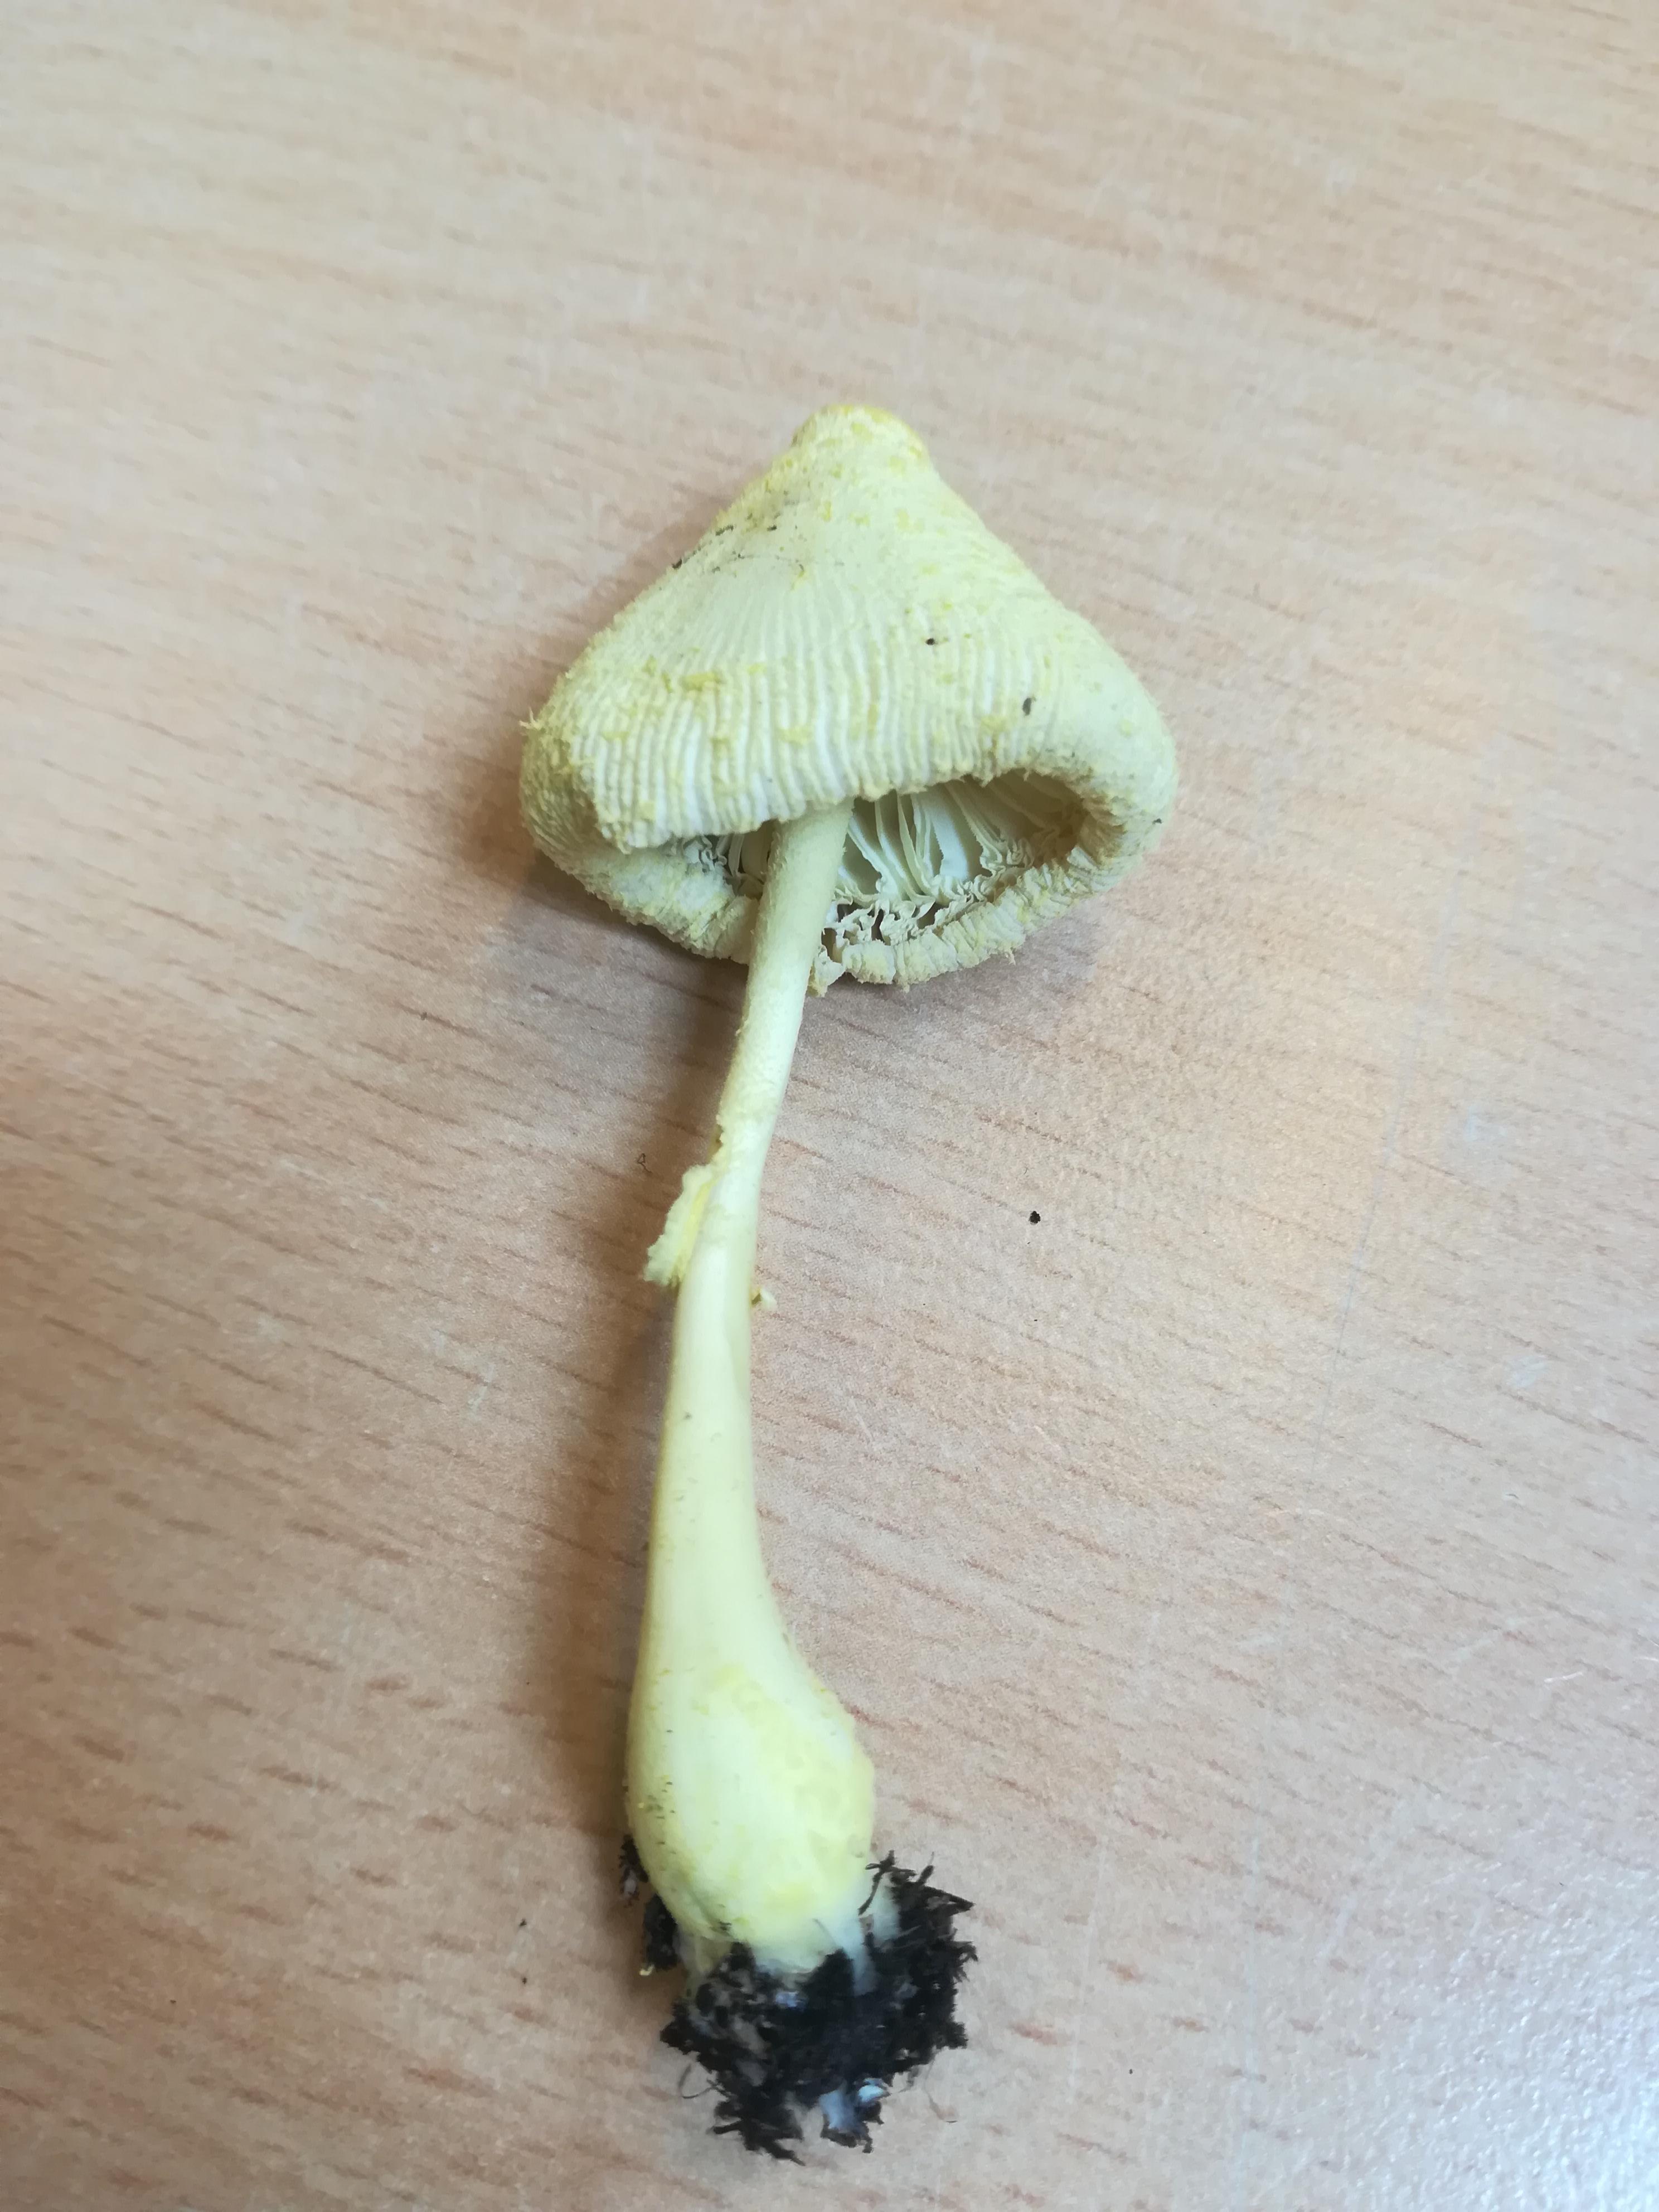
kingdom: Fungi
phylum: Basidiomycota
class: Agaricomycetes
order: Agaricales
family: Agaricaceae
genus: Leucocoprinus
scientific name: Leucocoprinus birnbaumii
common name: gul silkehat
